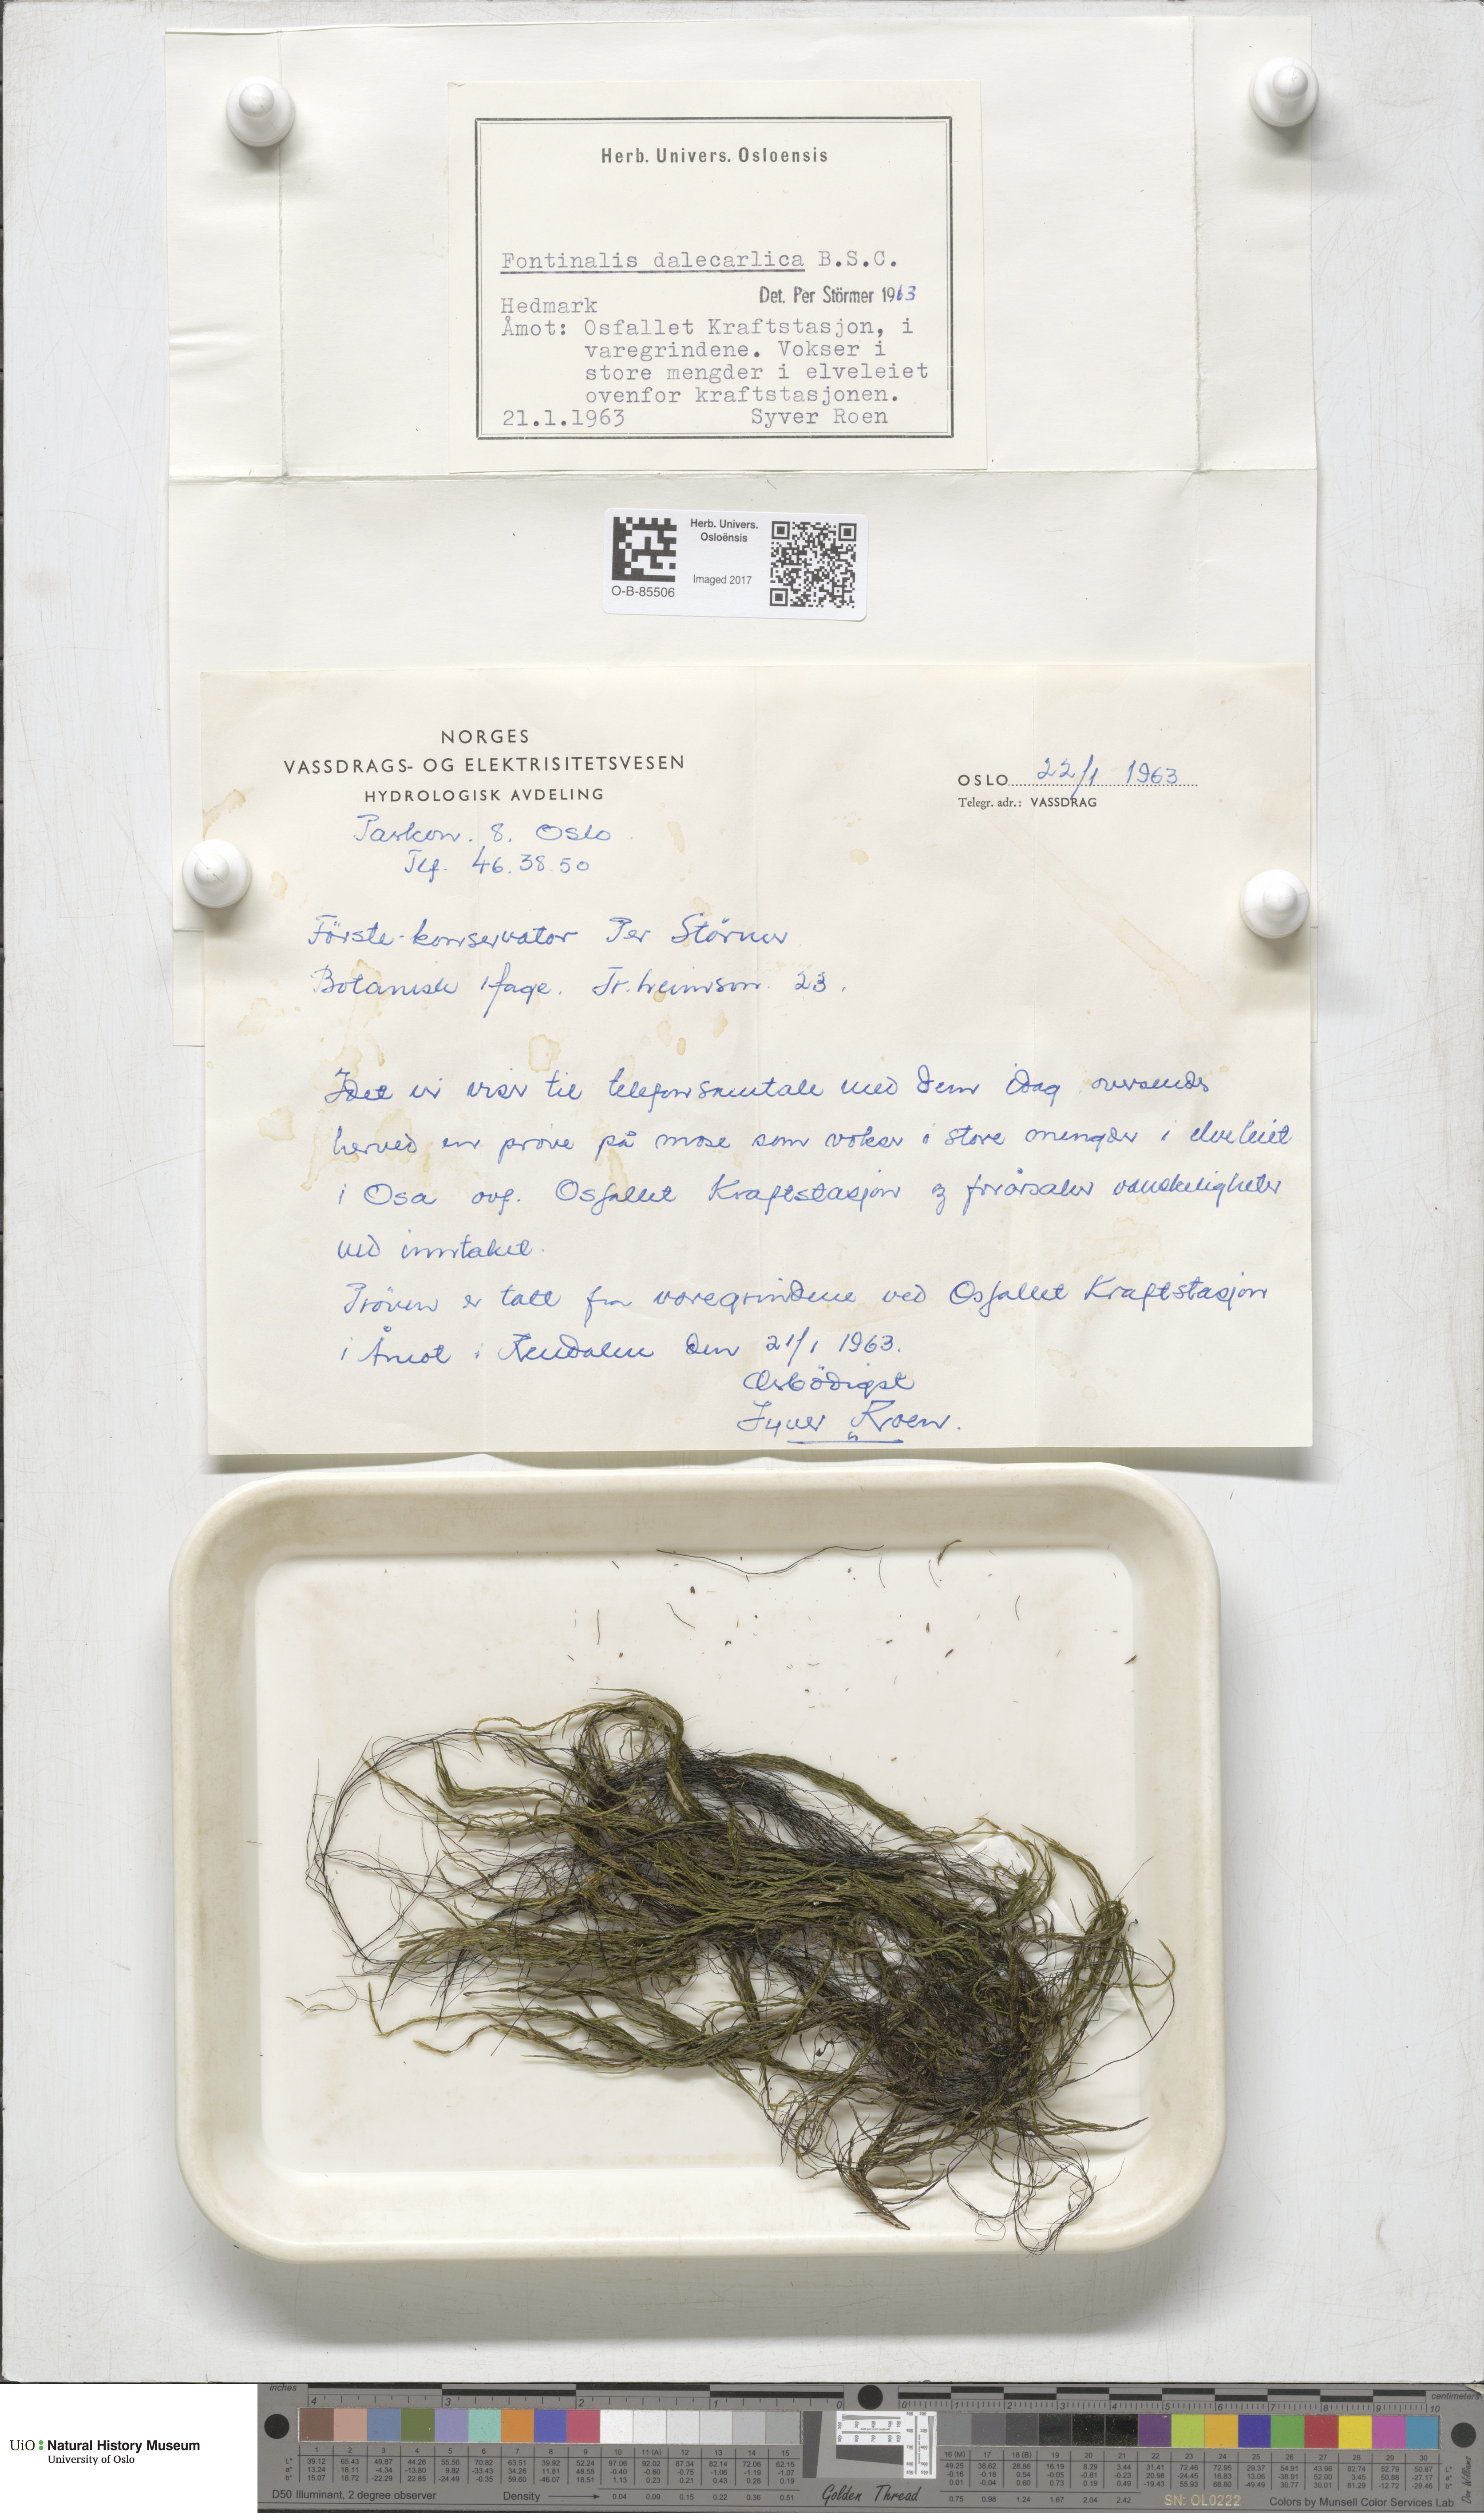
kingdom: Plantae
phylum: Bryophyta
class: Bryopsida
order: Hypnales
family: Fontinalaceae
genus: Fontinalis
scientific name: Fontinalis dalecarlica
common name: Slender water moss
